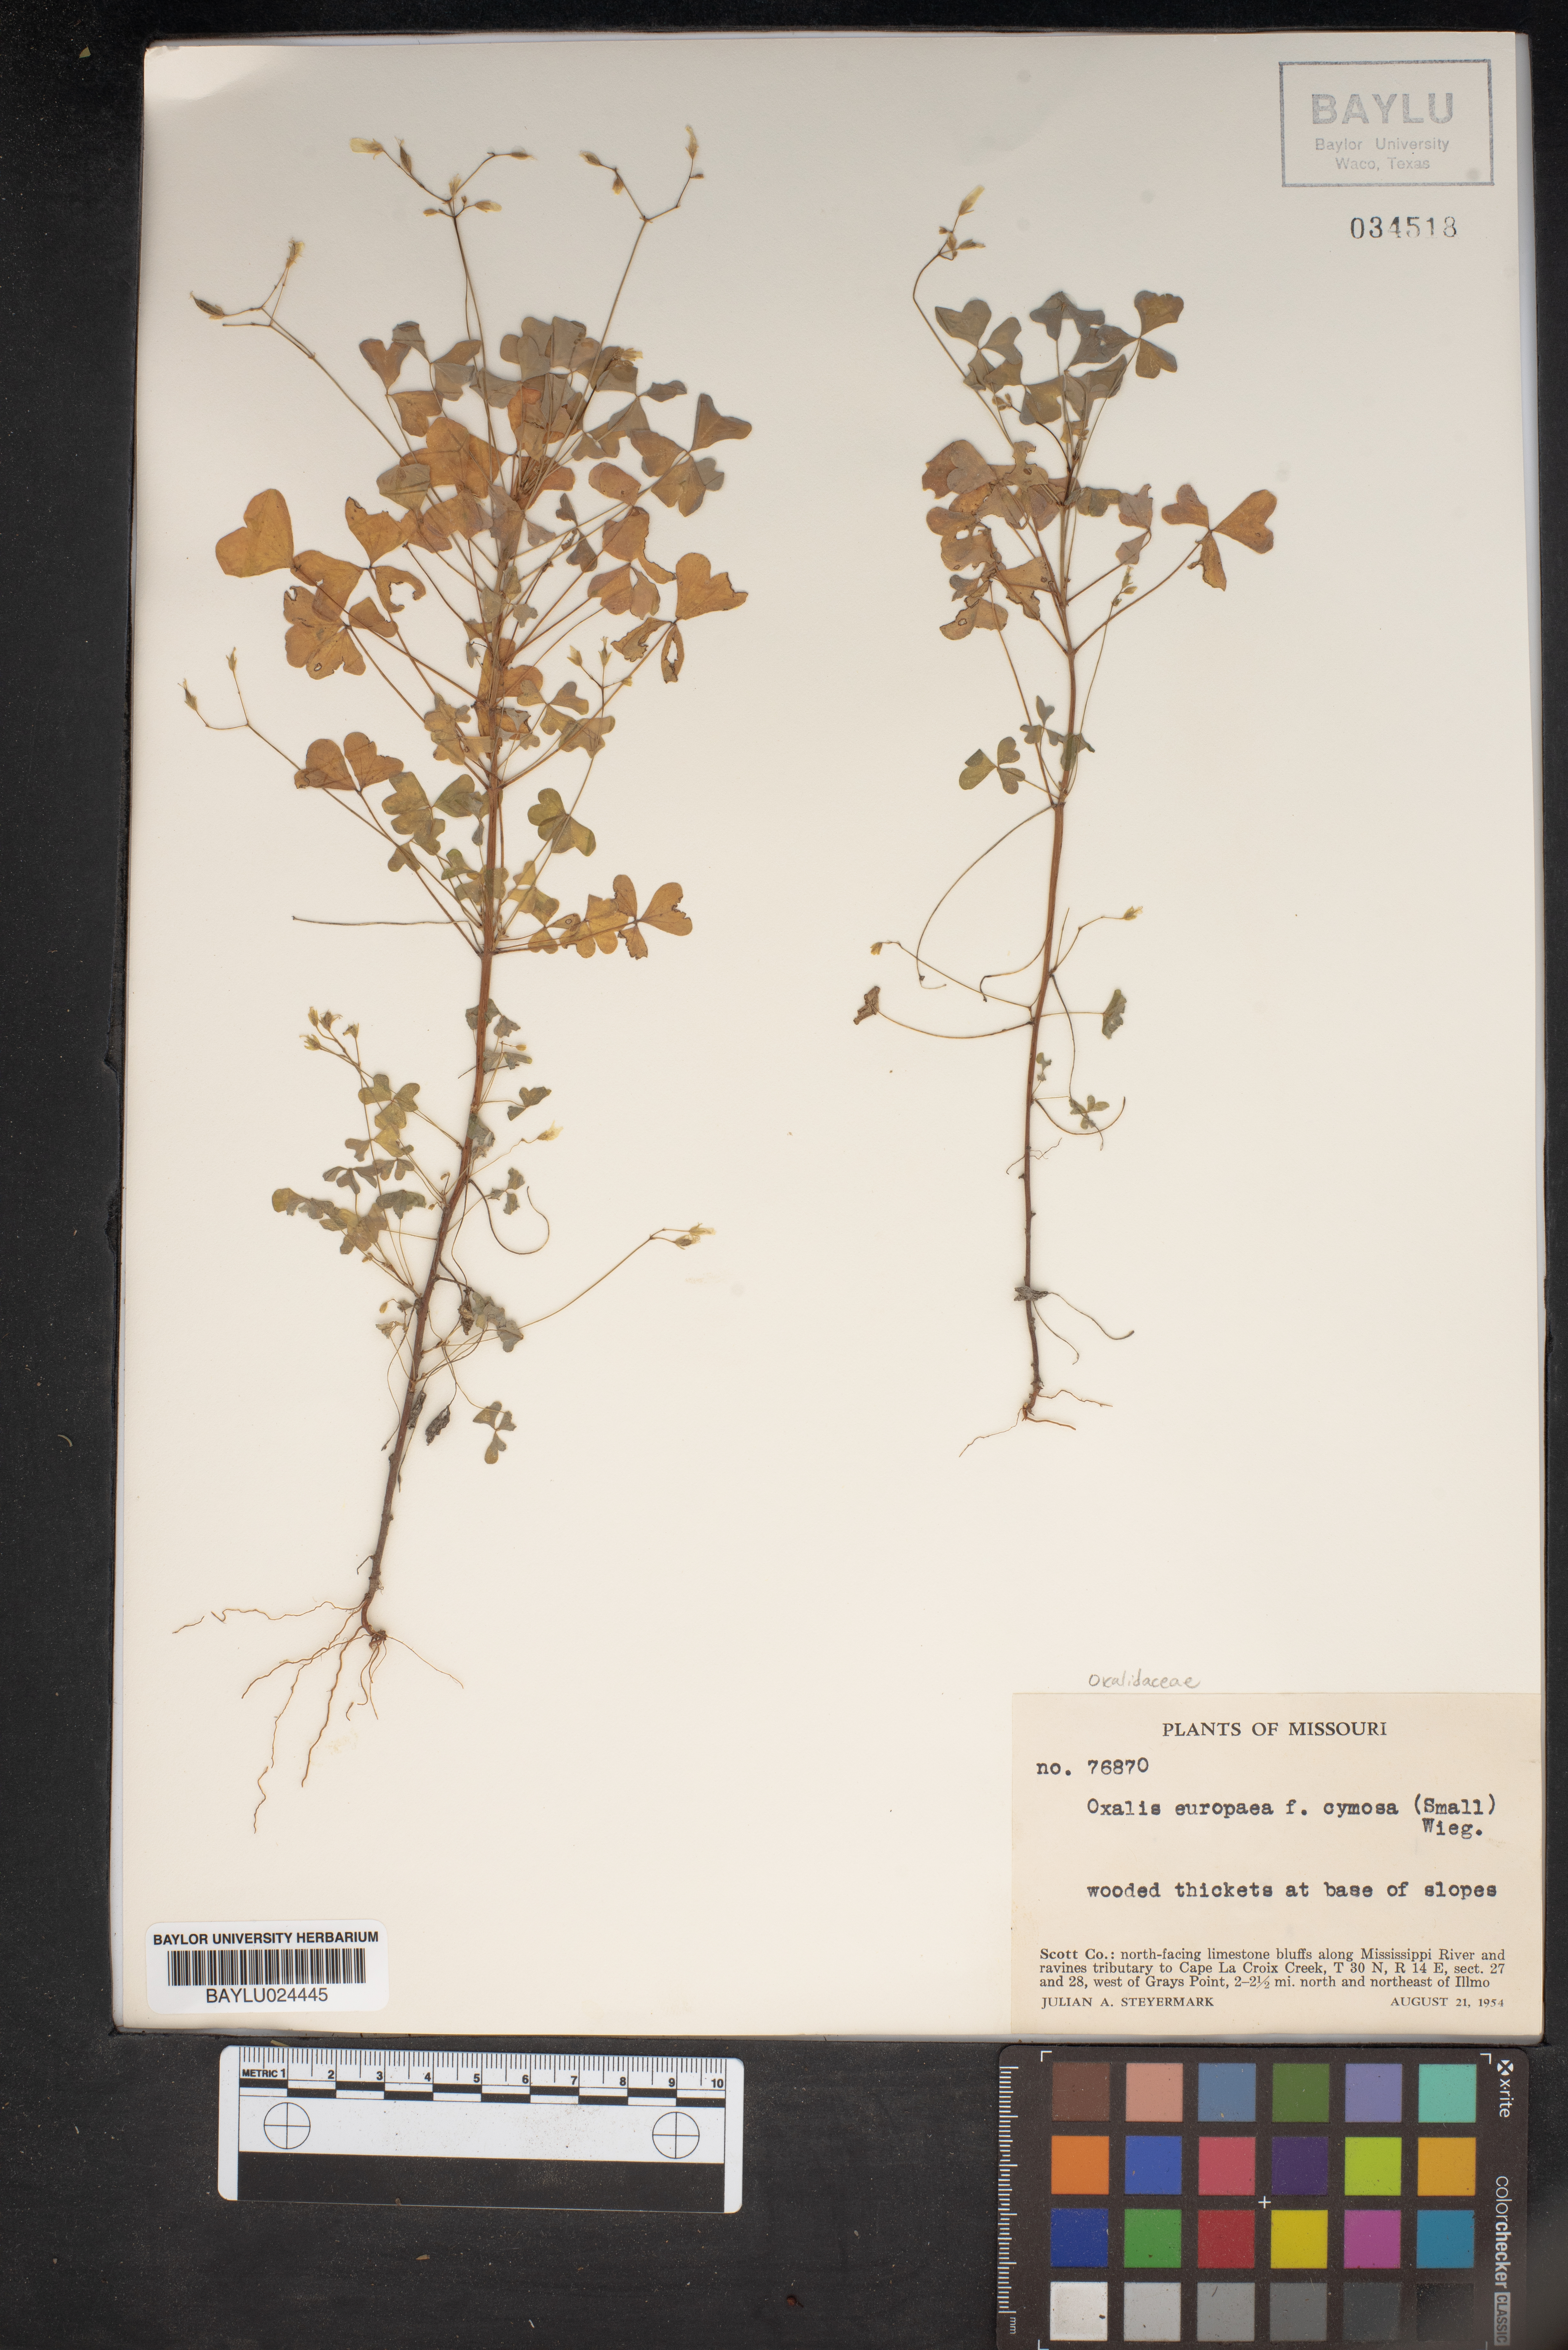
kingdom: Plantae
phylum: Tracheophyta
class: Magnoliopsida
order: Oxalidales
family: Oxalidaceae
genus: Oxalis
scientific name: Oxalis stricta
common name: Upright yellow-sorrel
